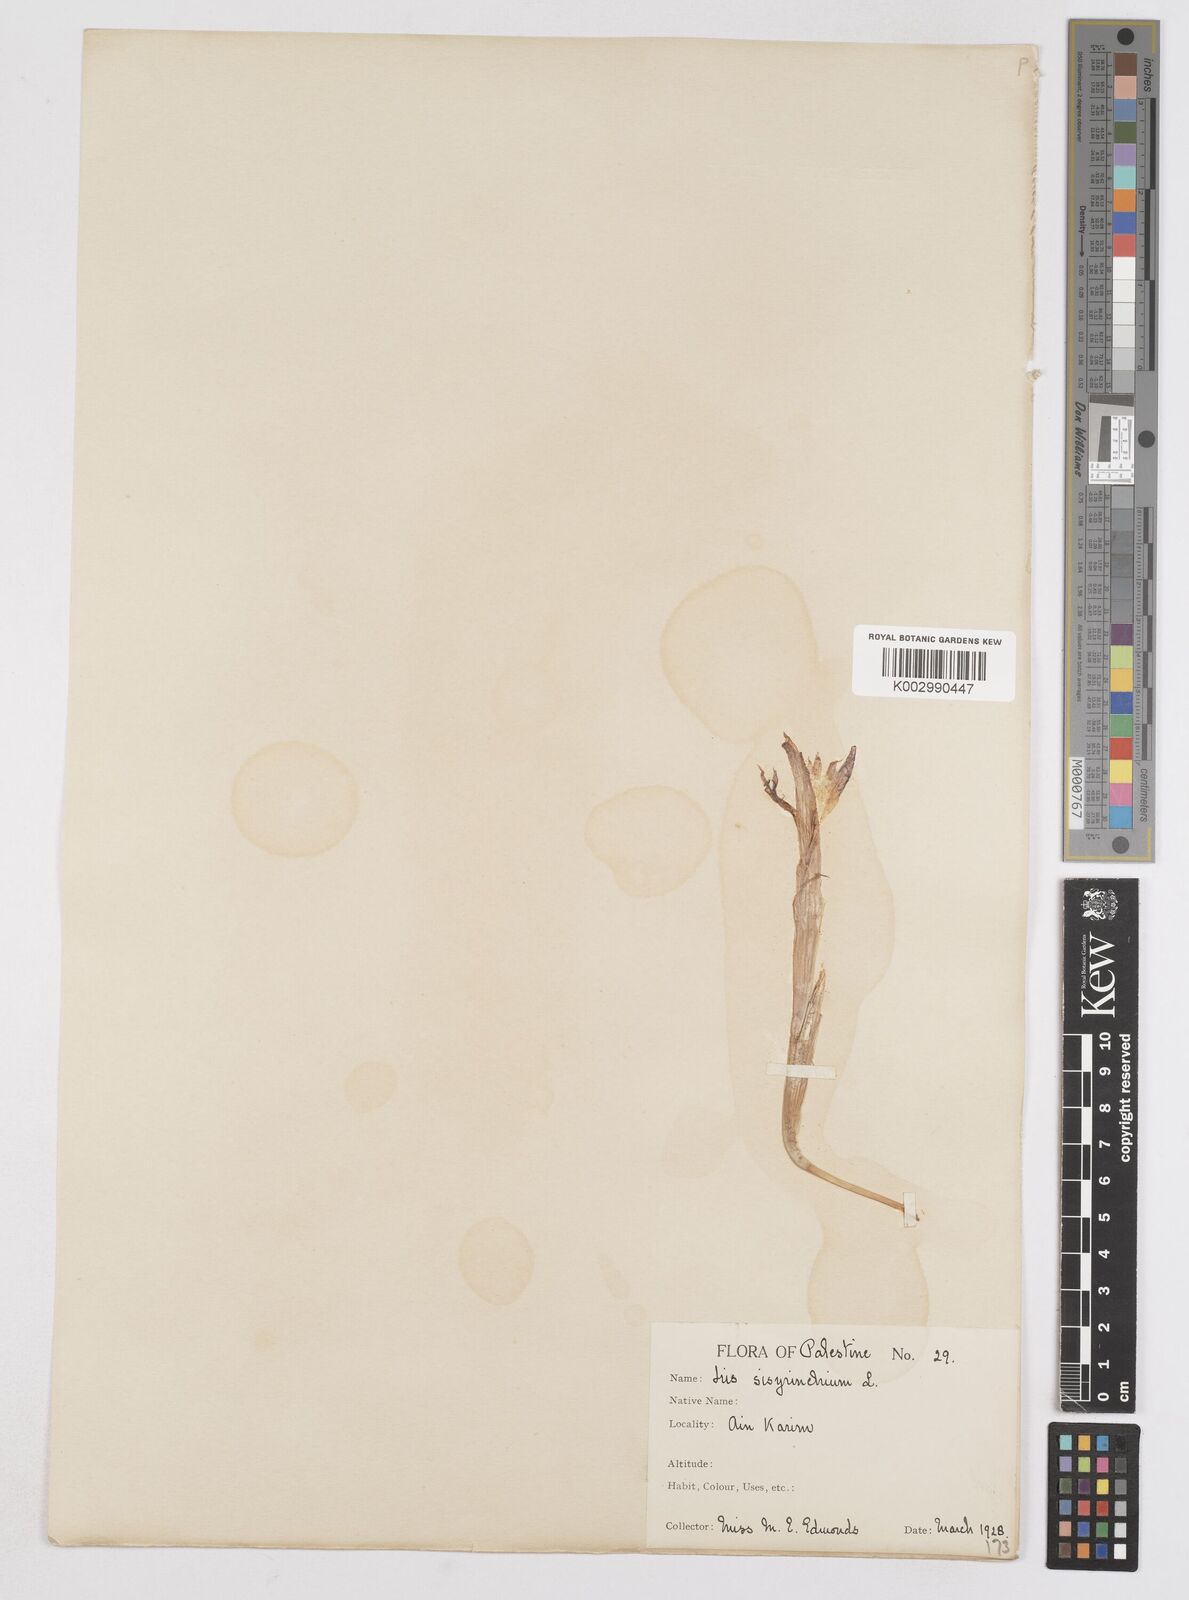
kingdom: Plantae
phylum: Tracheophyta
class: Liliopsida
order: Asparagales
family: Iridaceae
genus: Moraea
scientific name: Moraea sisyrinchium
